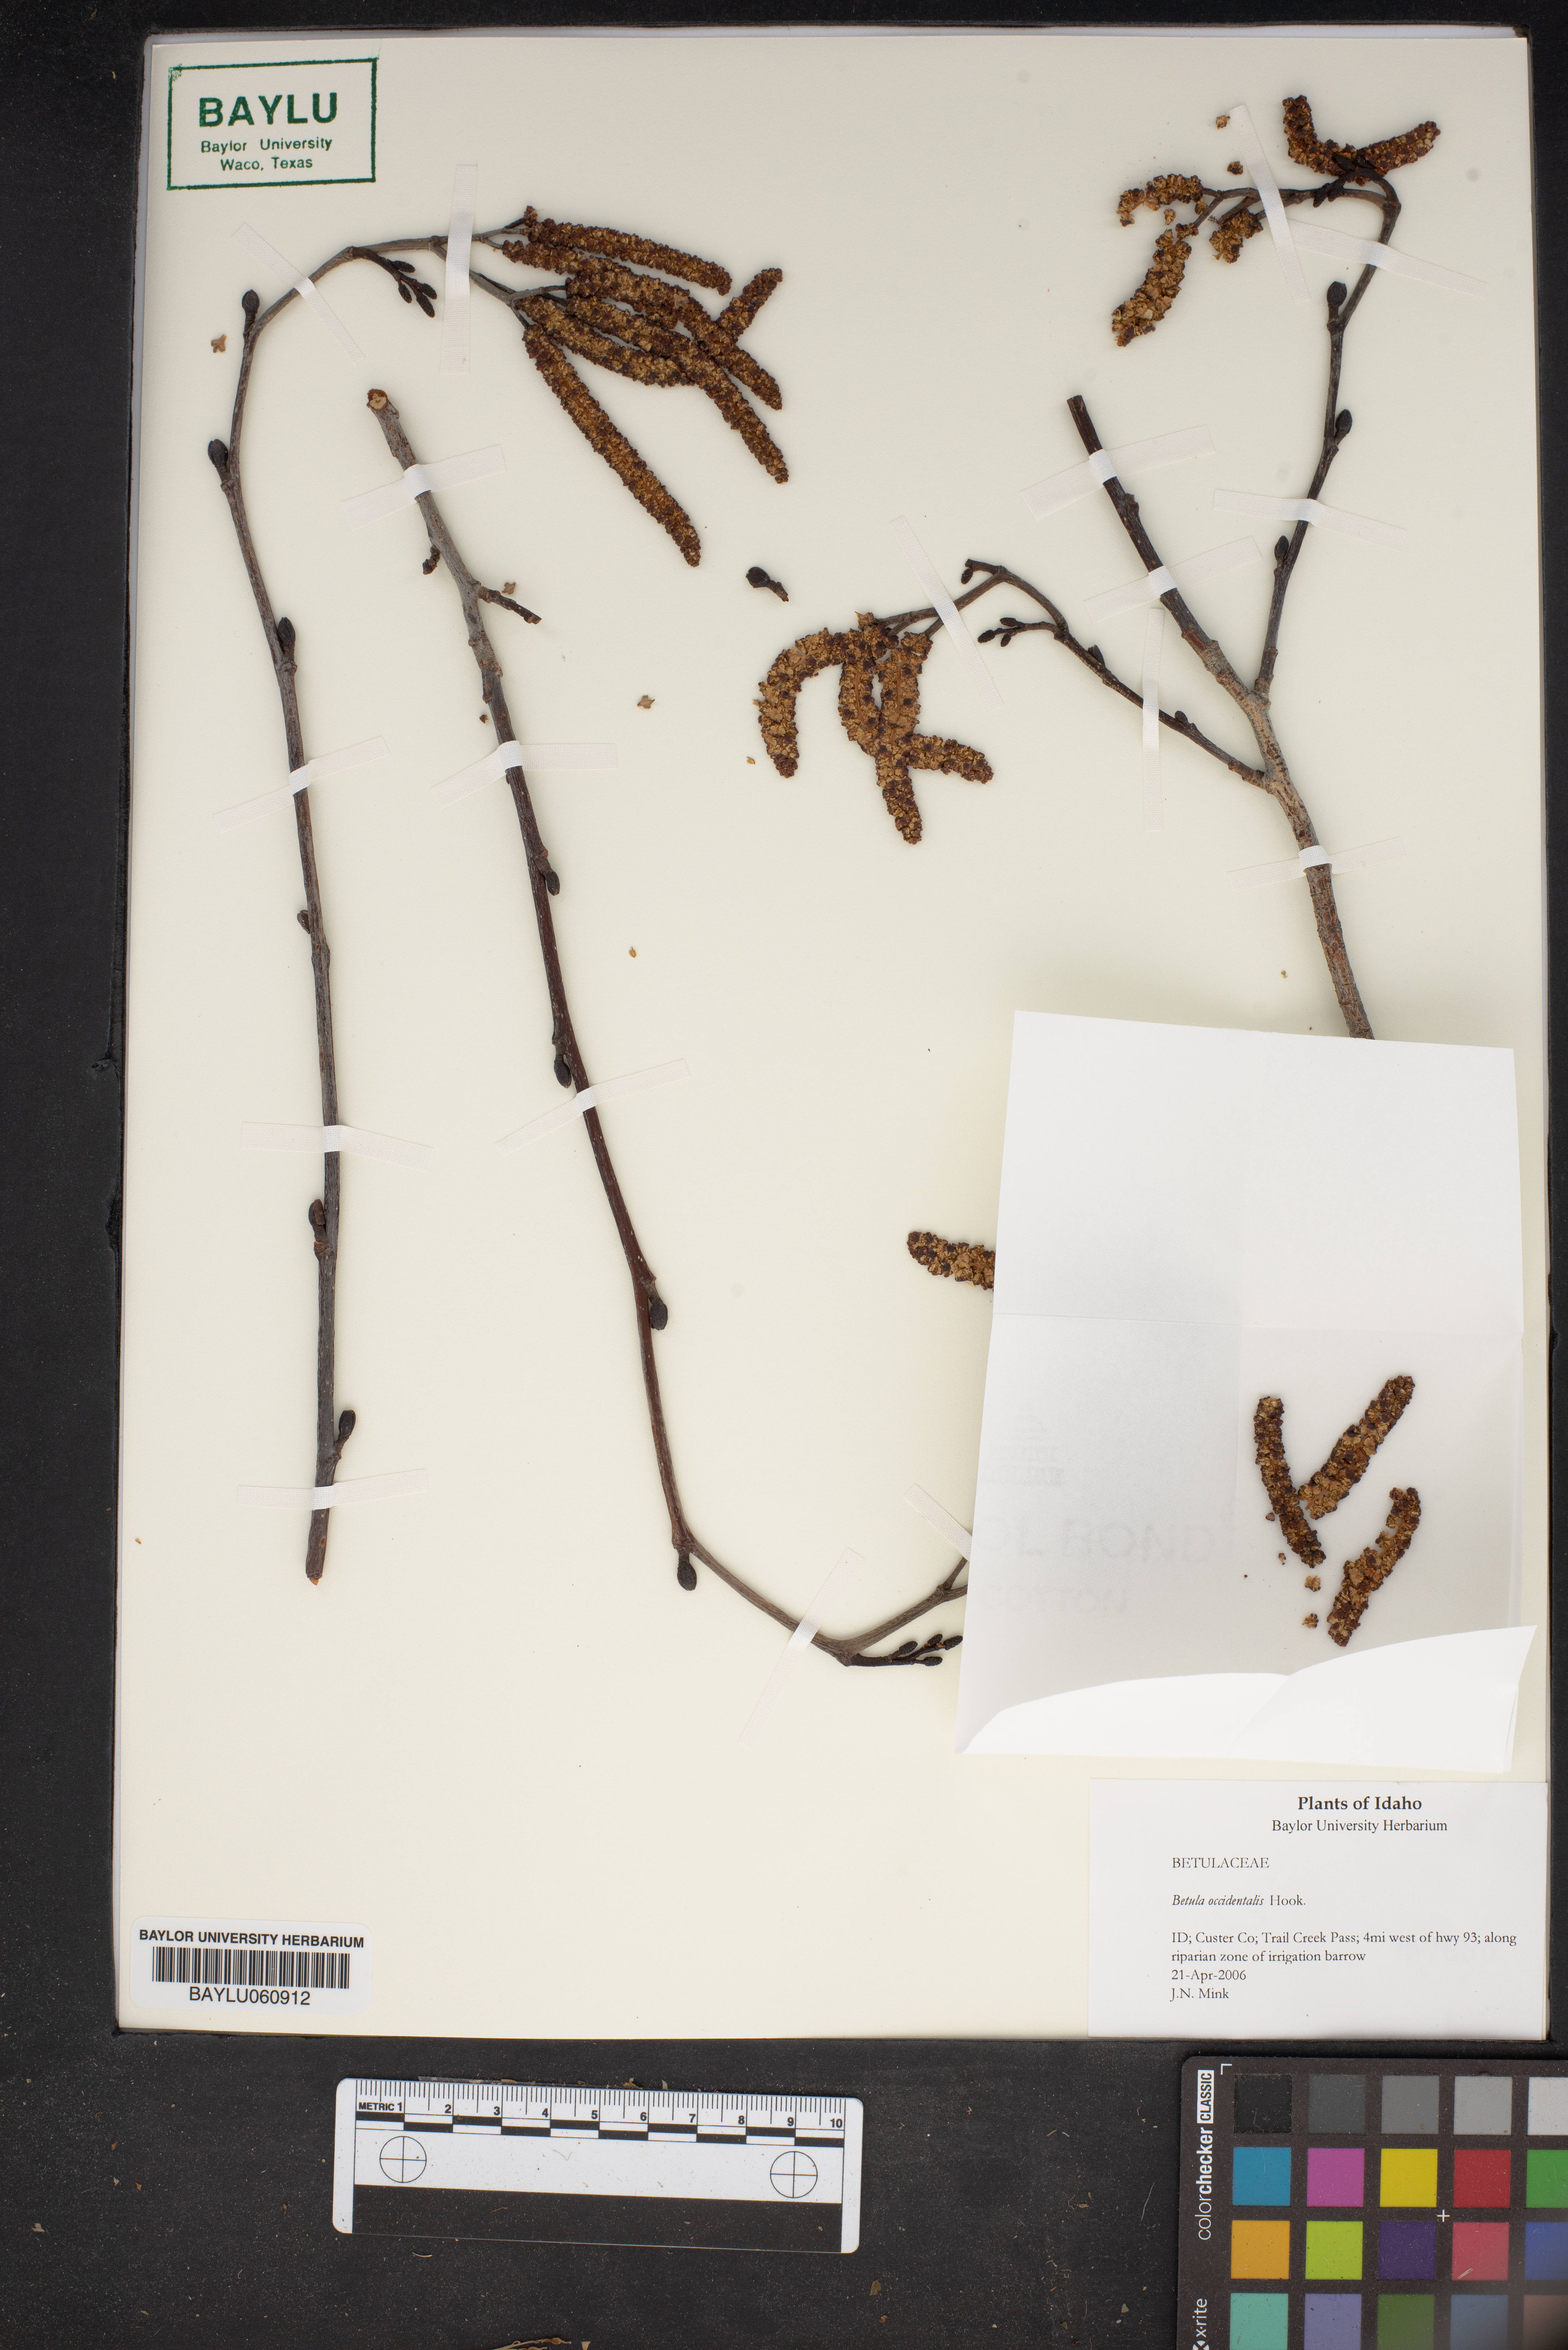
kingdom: Plantae
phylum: Tracheophyta
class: Magnoliopsida
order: Fagales
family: Betulaceae
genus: Betula
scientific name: Betula occidentalis
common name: River birch
